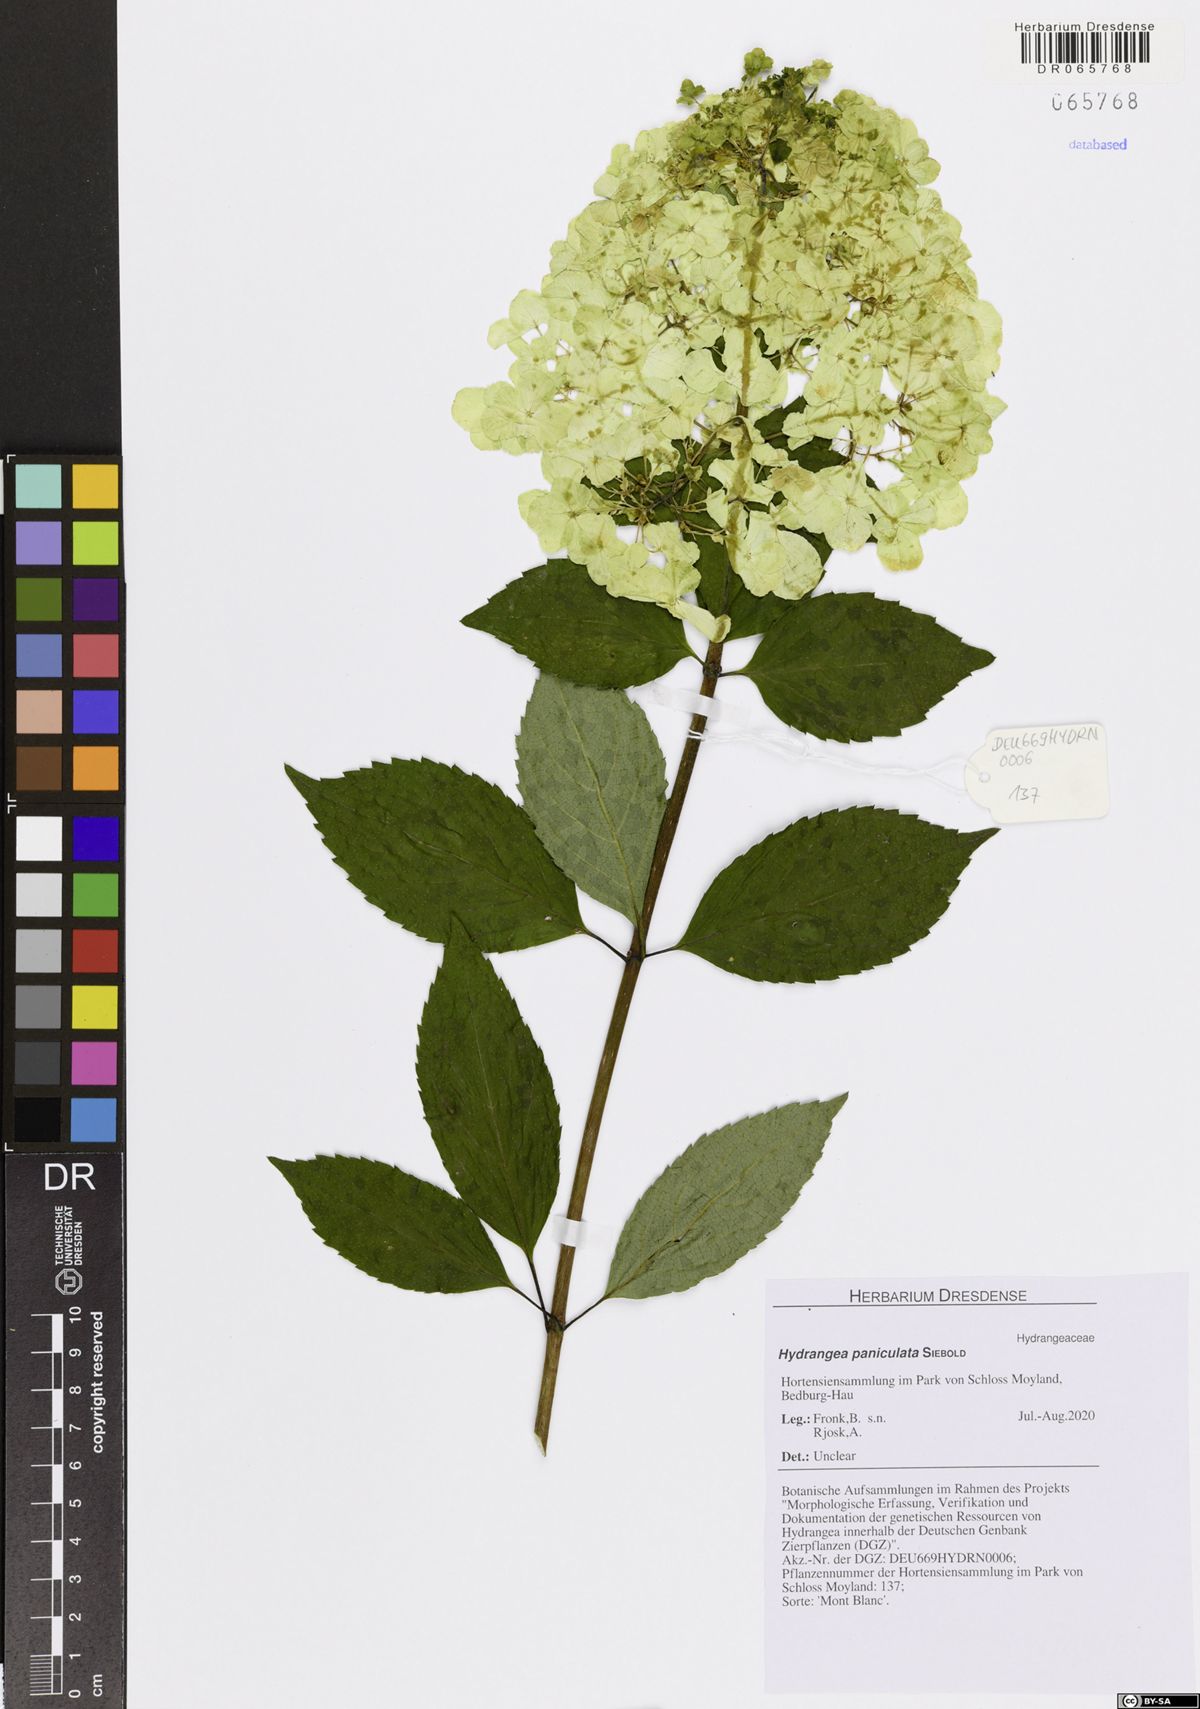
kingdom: Plantae
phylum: Tracheophyta
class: Magnoliopsida
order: Cornales
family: Hydrangeaceae
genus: Hydrangea
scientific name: Hydrangea paniculata
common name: Panicled hydrangea
